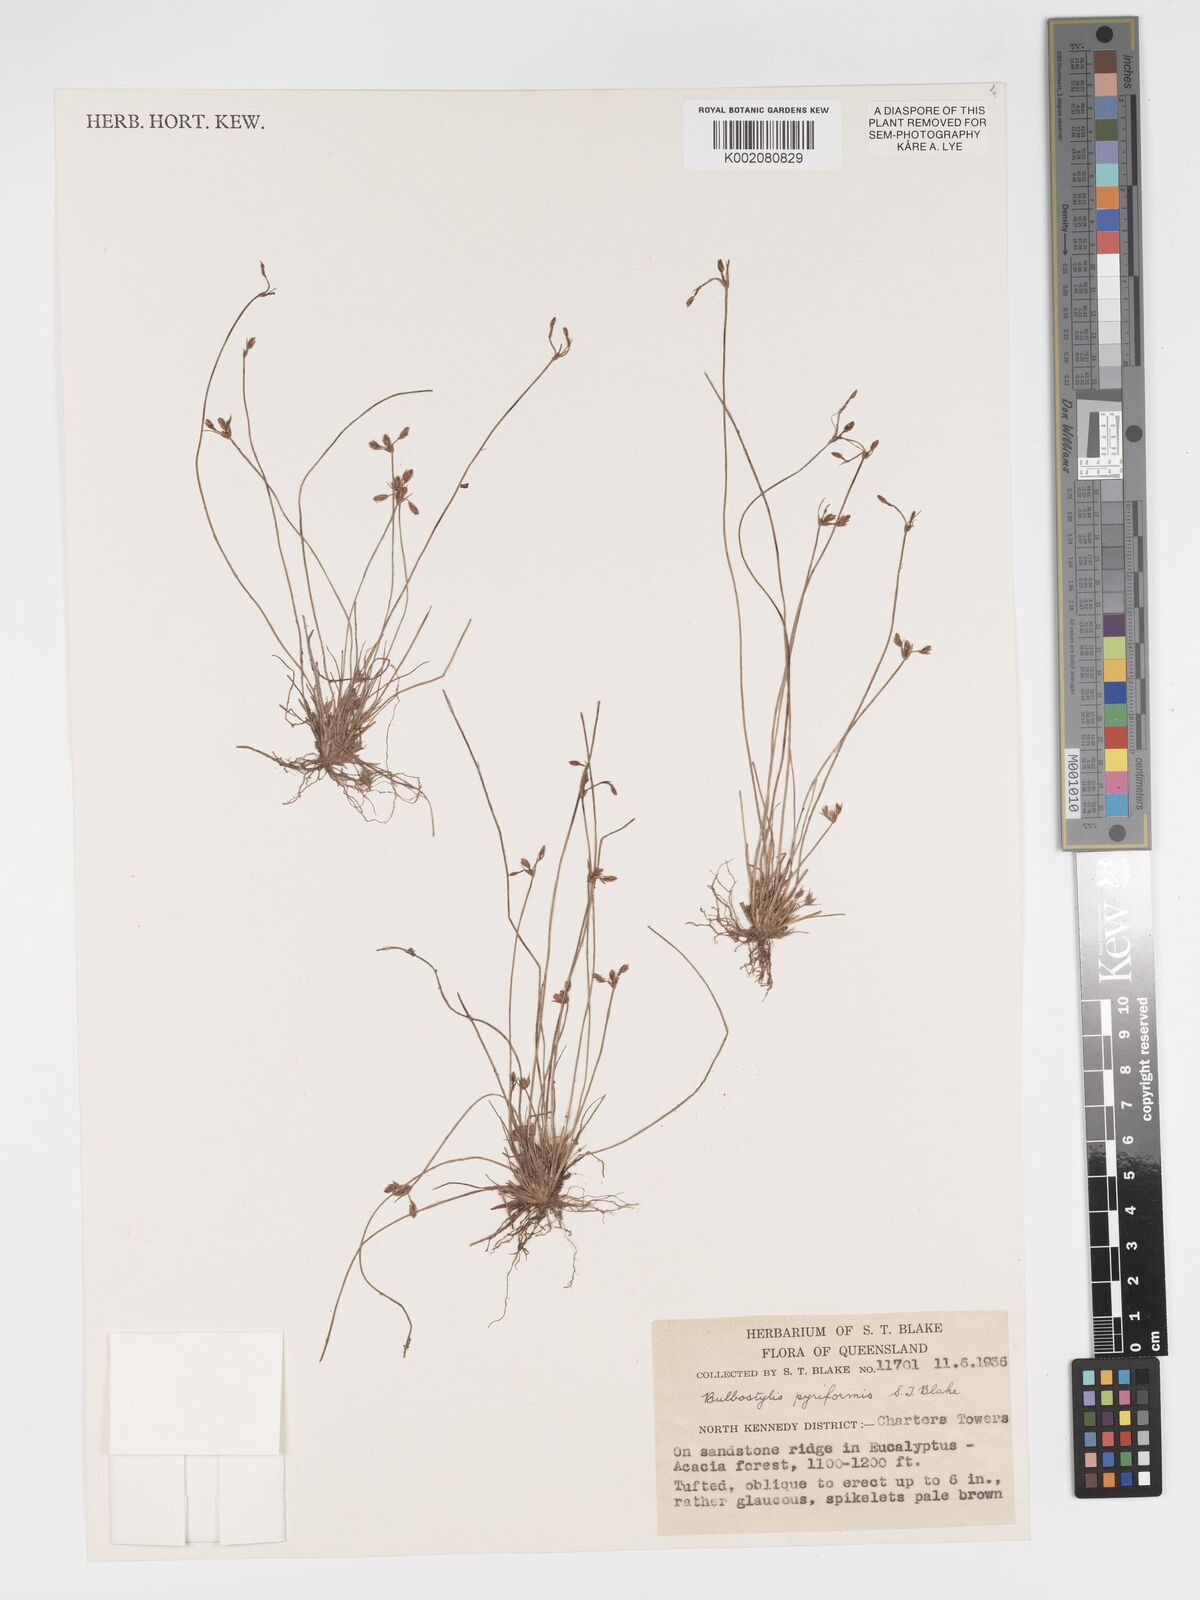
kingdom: Plantae
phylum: Tracheophyta
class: Liliopsida
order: Poales
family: Cyperaceae
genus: Bulbostylis
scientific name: Bulbostylis pyriformis
